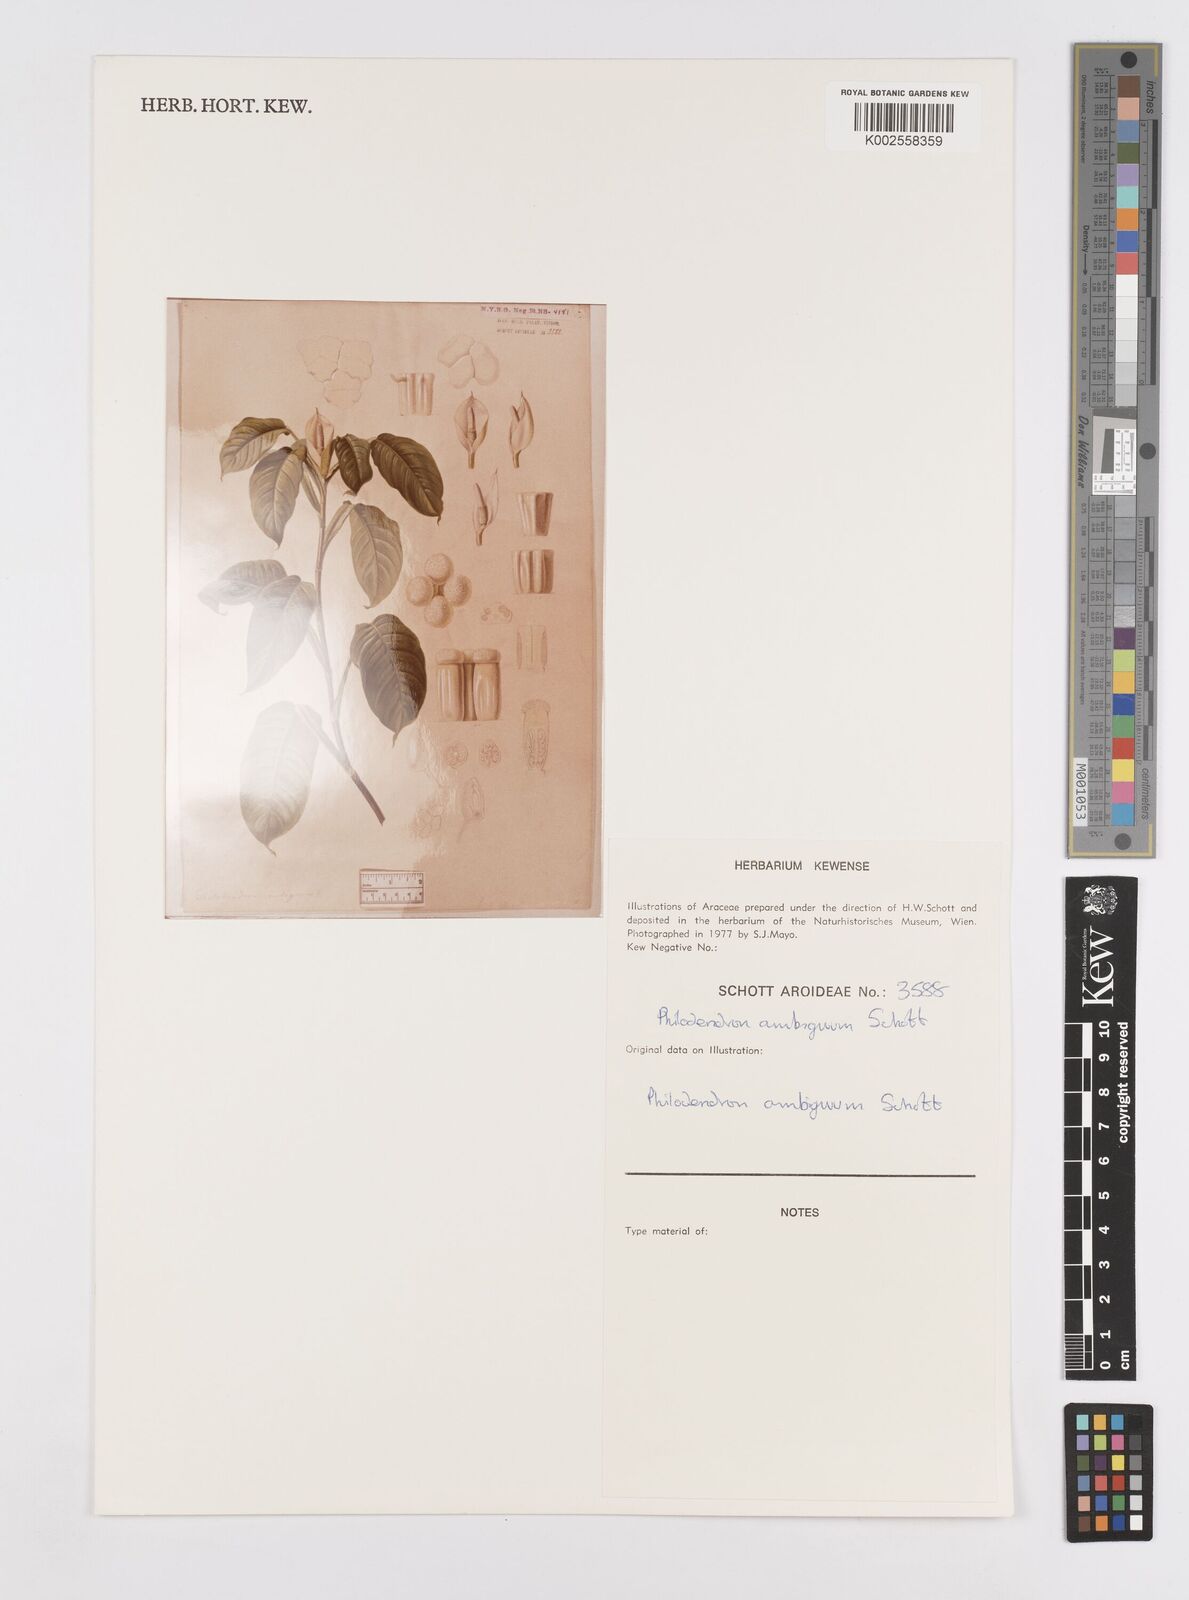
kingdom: Plantae
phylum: Tracheophyta
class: Liliopsida
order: Alismatales
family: Araceae
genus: Philodendron
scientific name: Philodendron propinquum
